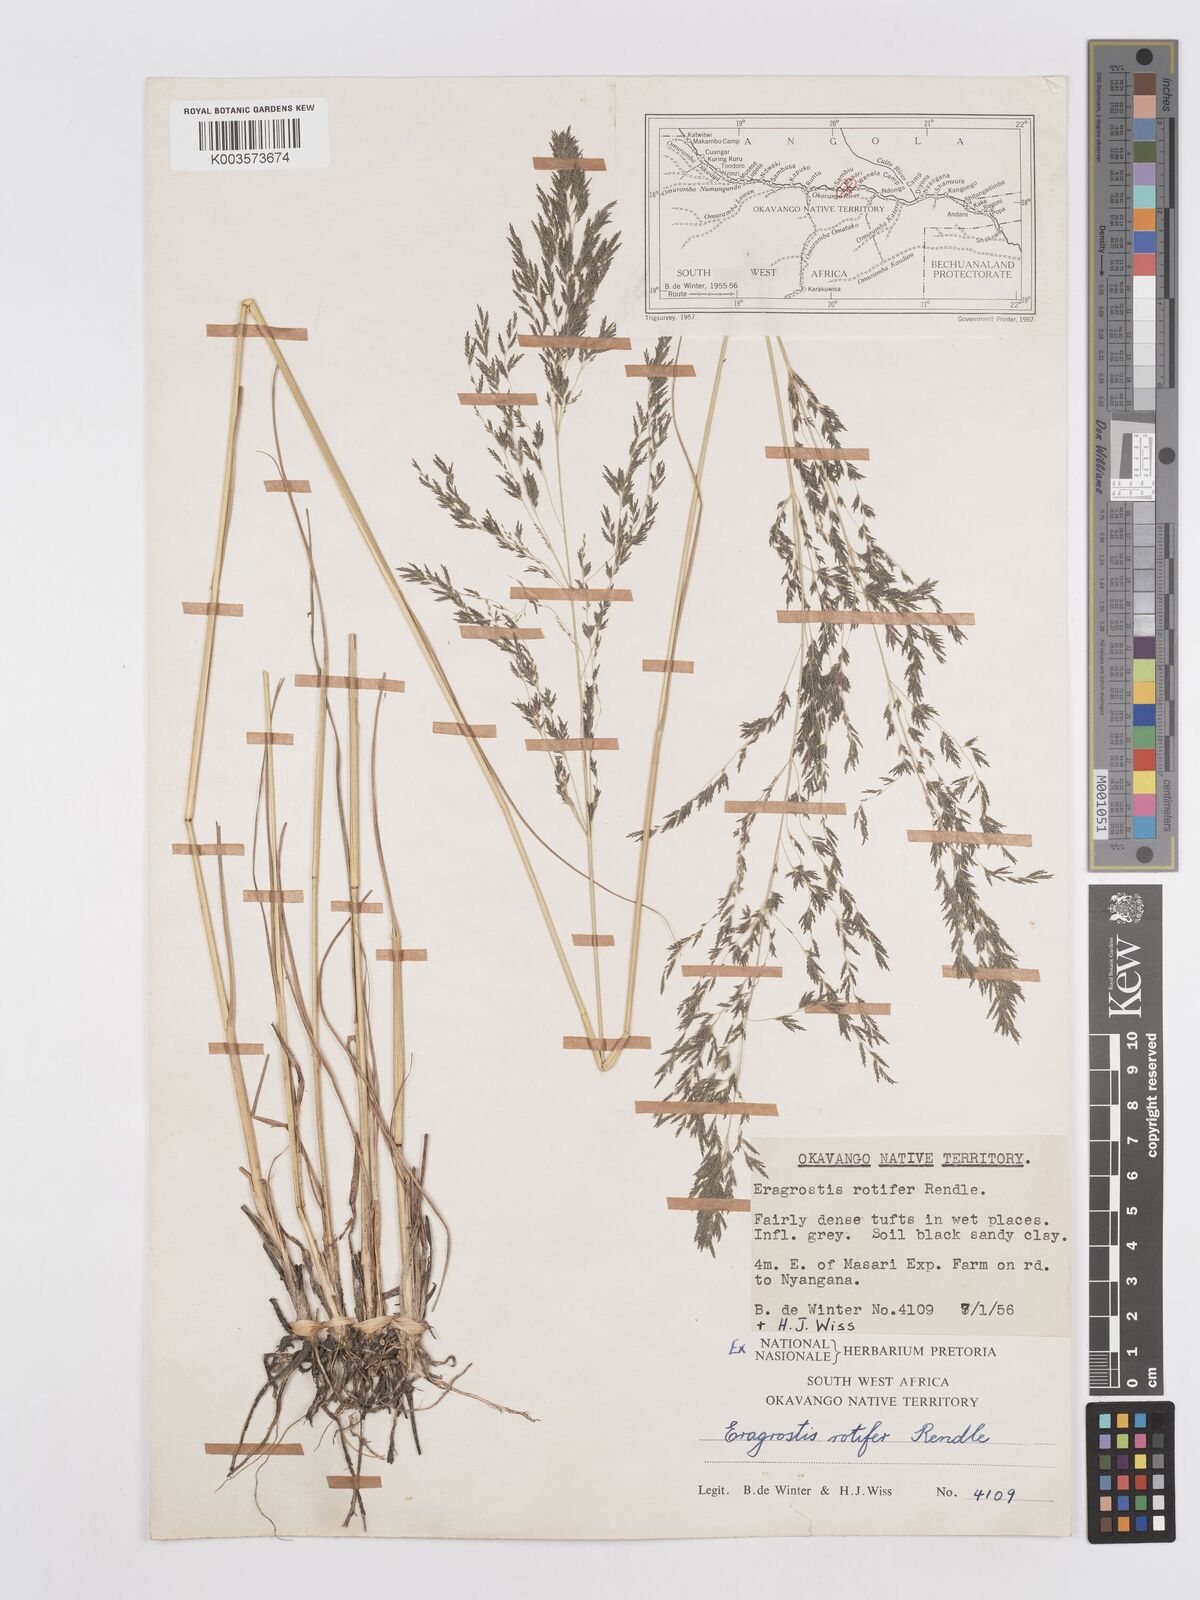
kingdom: Plantae
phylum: Tracheophyta
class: Liliopsida
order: Poales
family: Poaceae
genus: Eragrostis
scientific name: Eragrostis rotifer
